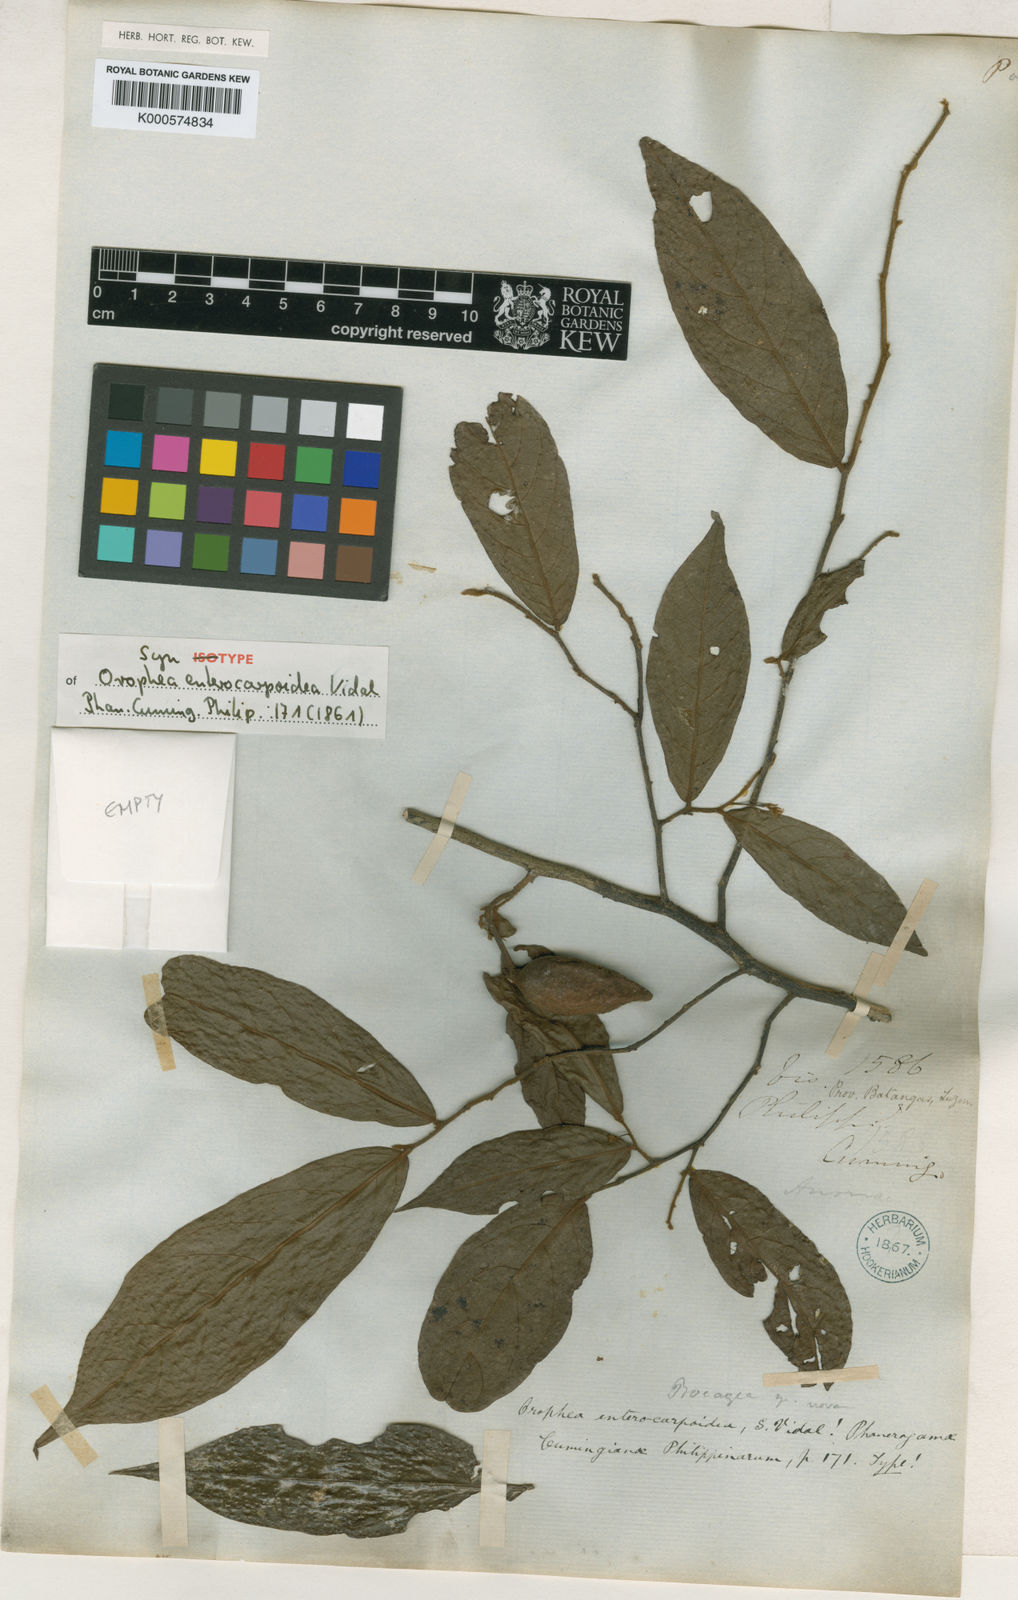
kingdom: Plantae
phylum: Tracheophyta
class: Magnoliopsida
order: Magnoliales
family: Annonaceae
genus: Orophea
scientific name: Orophea
